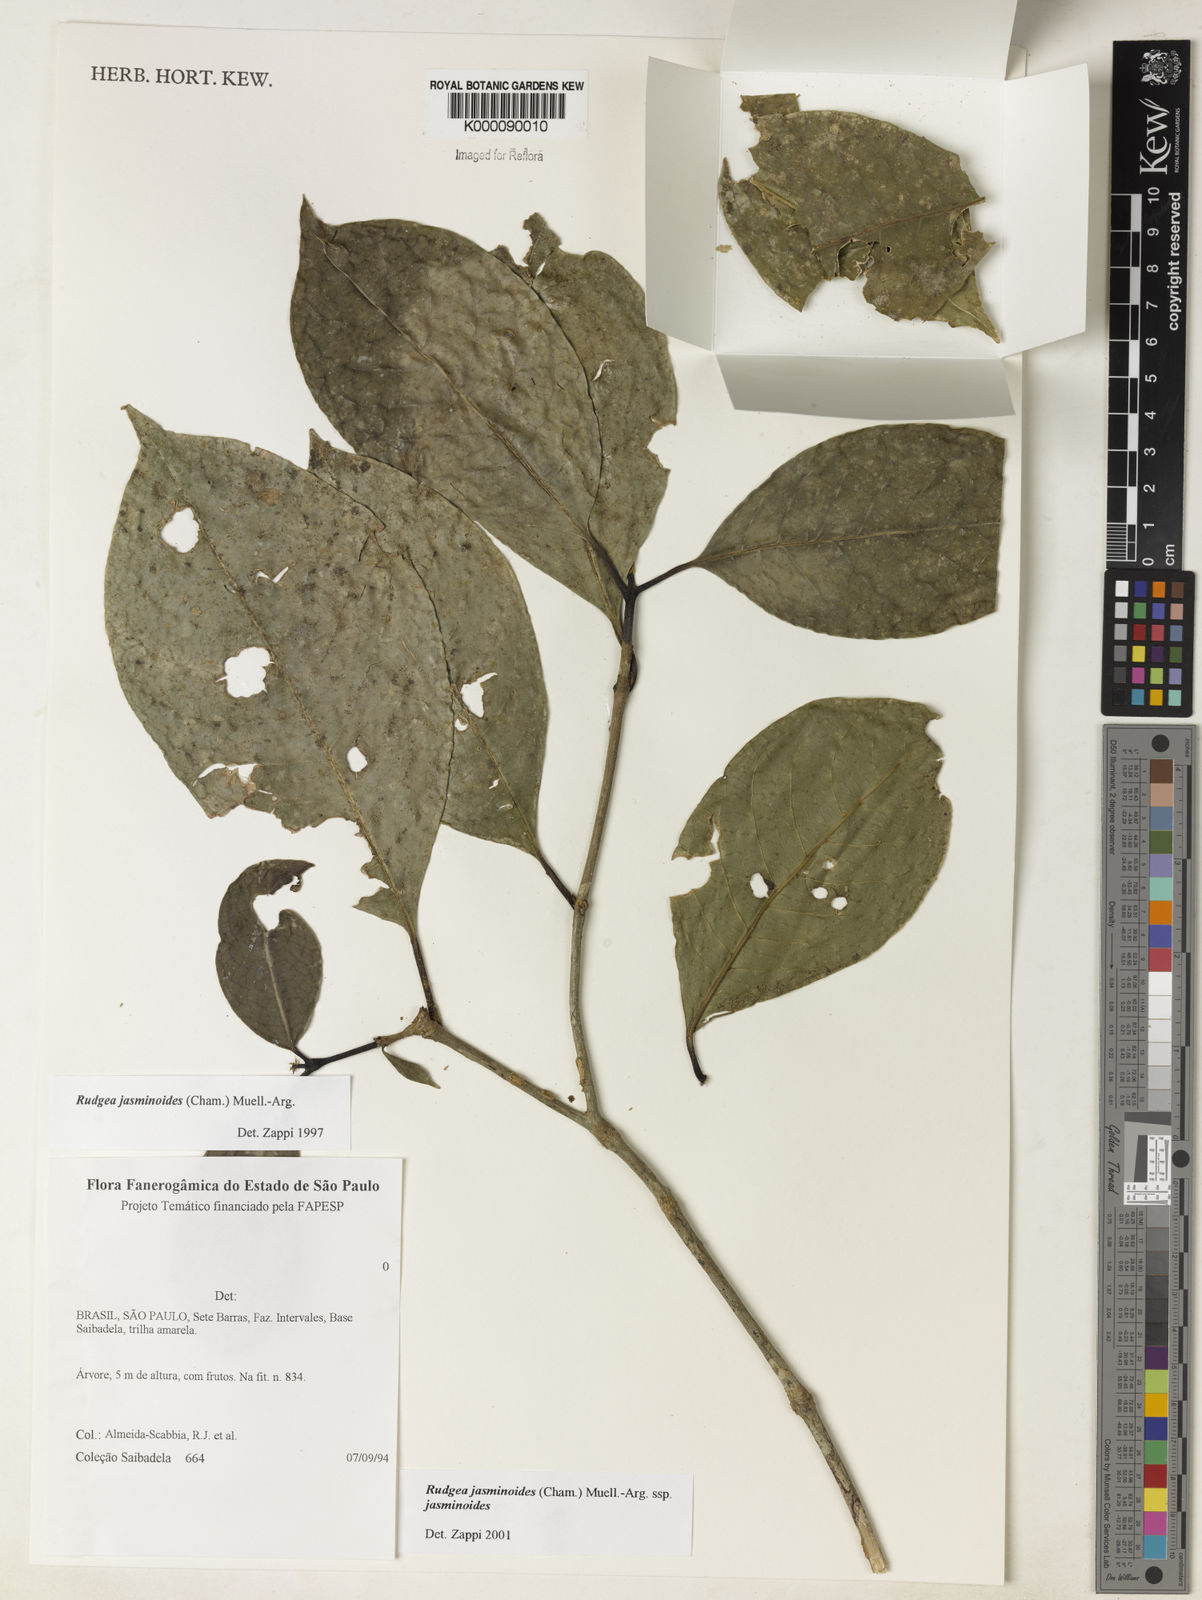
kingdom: Plantae
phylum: Tracheophyta
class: Magnoliopsida
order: Gentianales
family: Rubiaceae
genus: Rudgea
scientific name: Rudgea jasminoides
